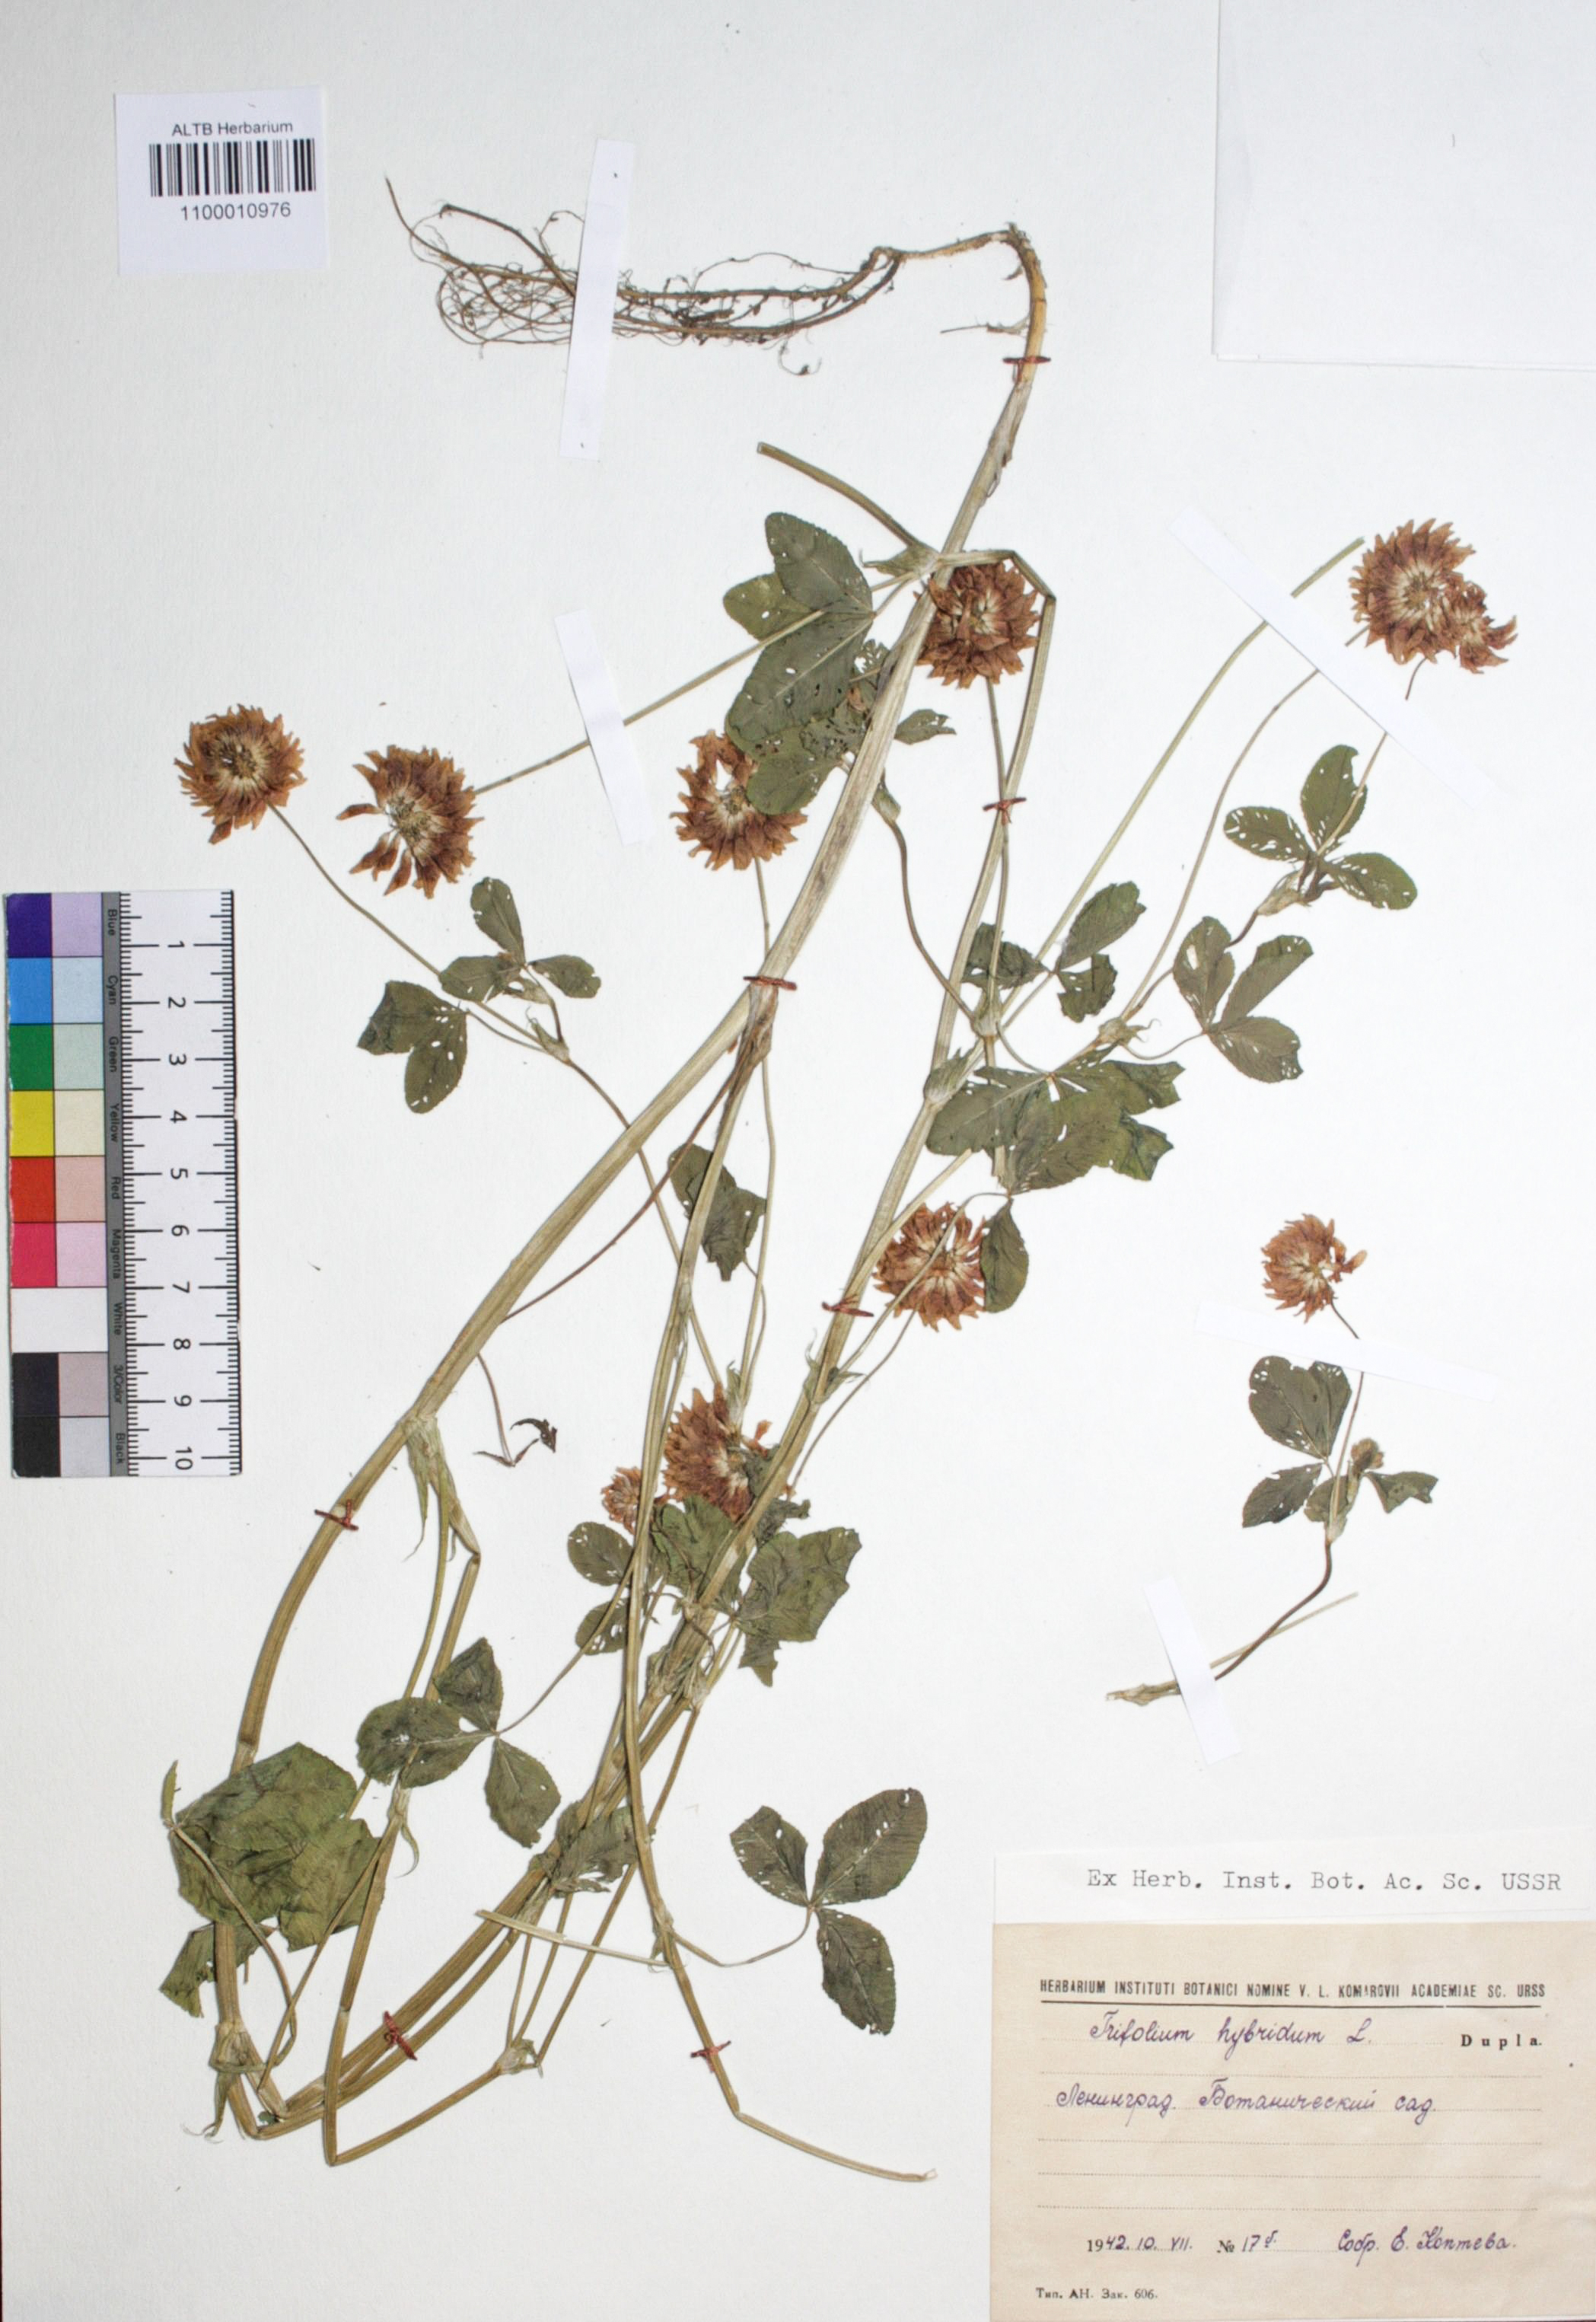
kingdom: Plantae
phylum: Tracheophyta
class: Magnoliopsida
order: Fabales
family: Fabaceae
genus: Trifolium
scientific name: Trifolium hybridum
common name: Alsike clover
